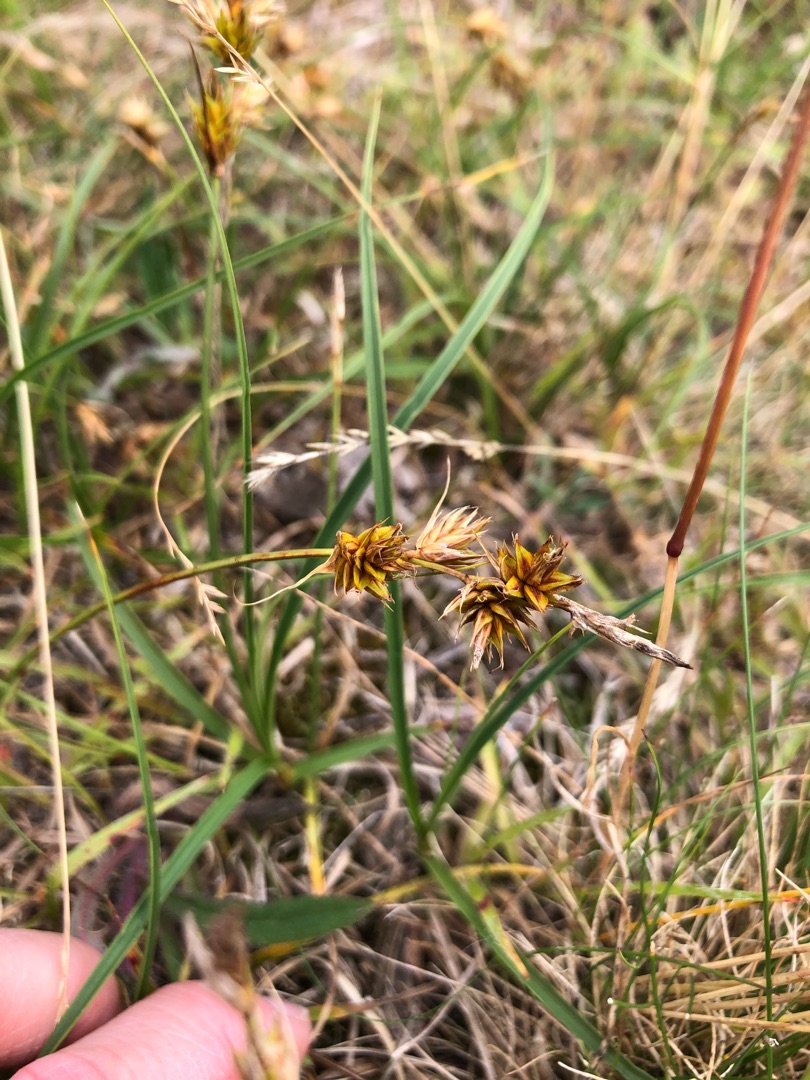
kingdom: Plantae
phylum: Tracheophyta
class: Liliopsida
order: Poales
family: Cyperaceae
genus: Carex
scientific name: Carex arenaria
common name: Sand-star
